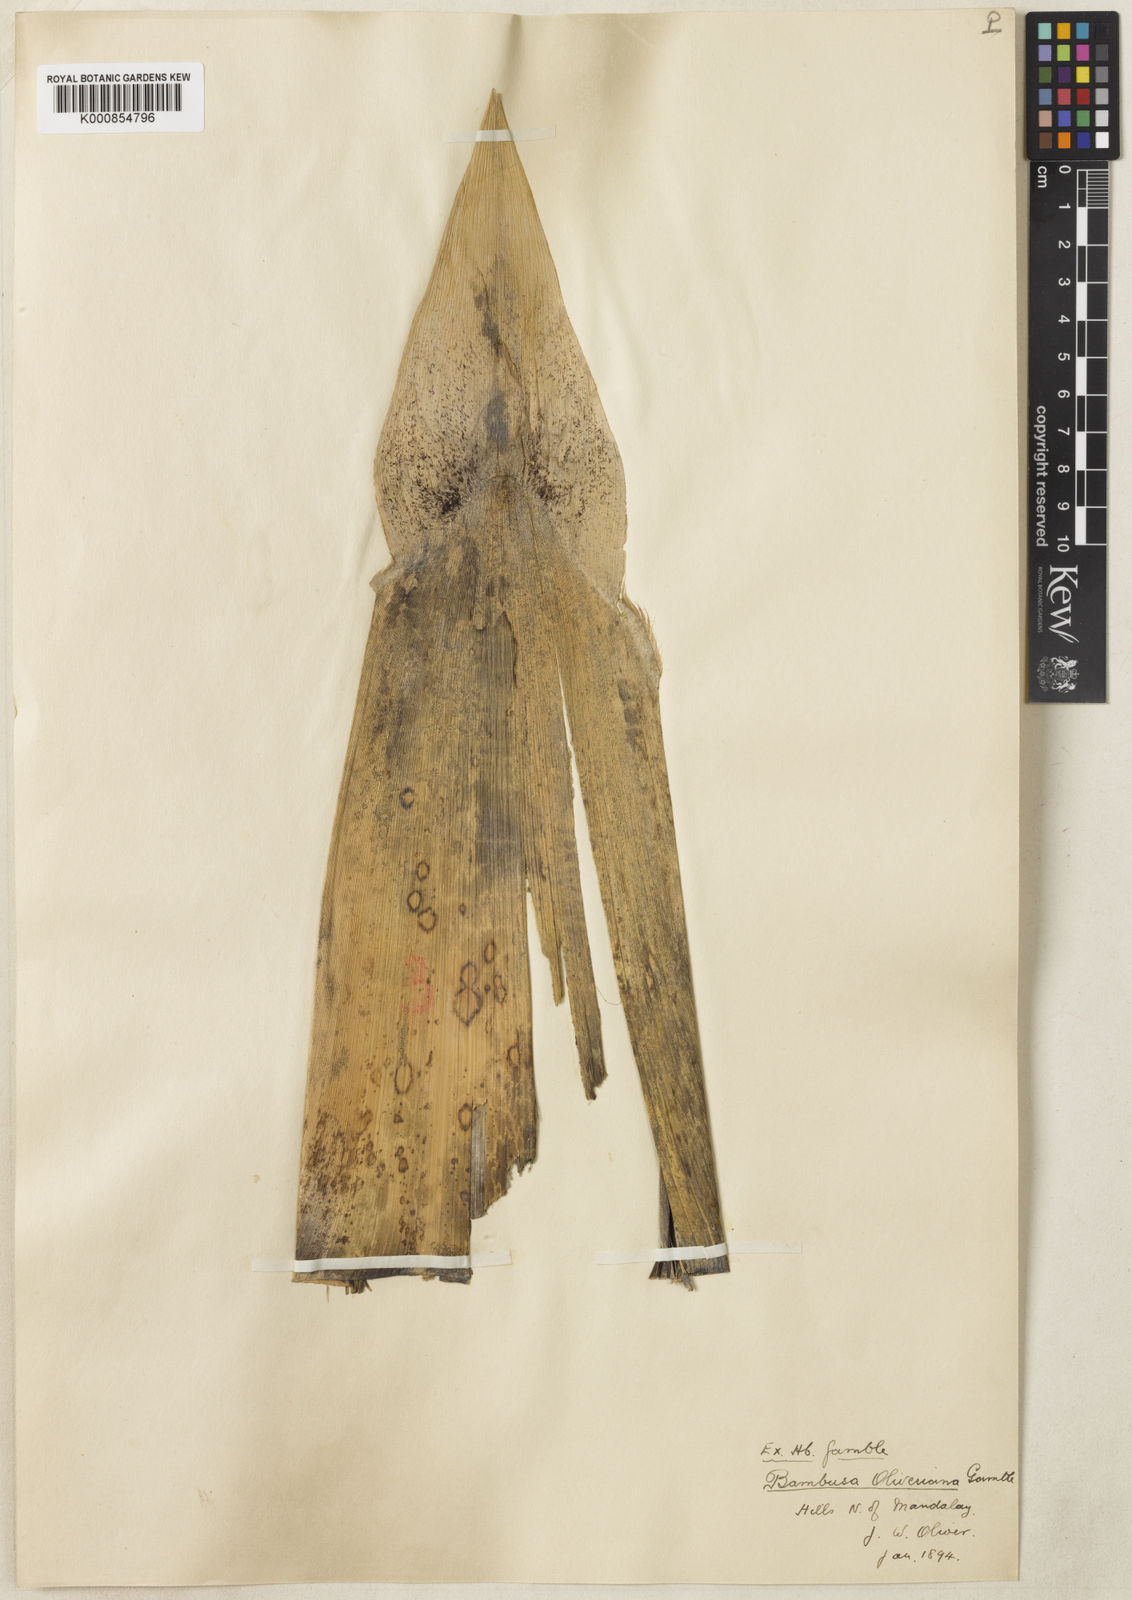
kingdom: Plantae
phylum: Tracheophyta
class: Liliopsida
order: Poales
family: Poaceae
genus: Bambusa
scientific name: Bambusa oliveriana
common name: Bush bamboo
